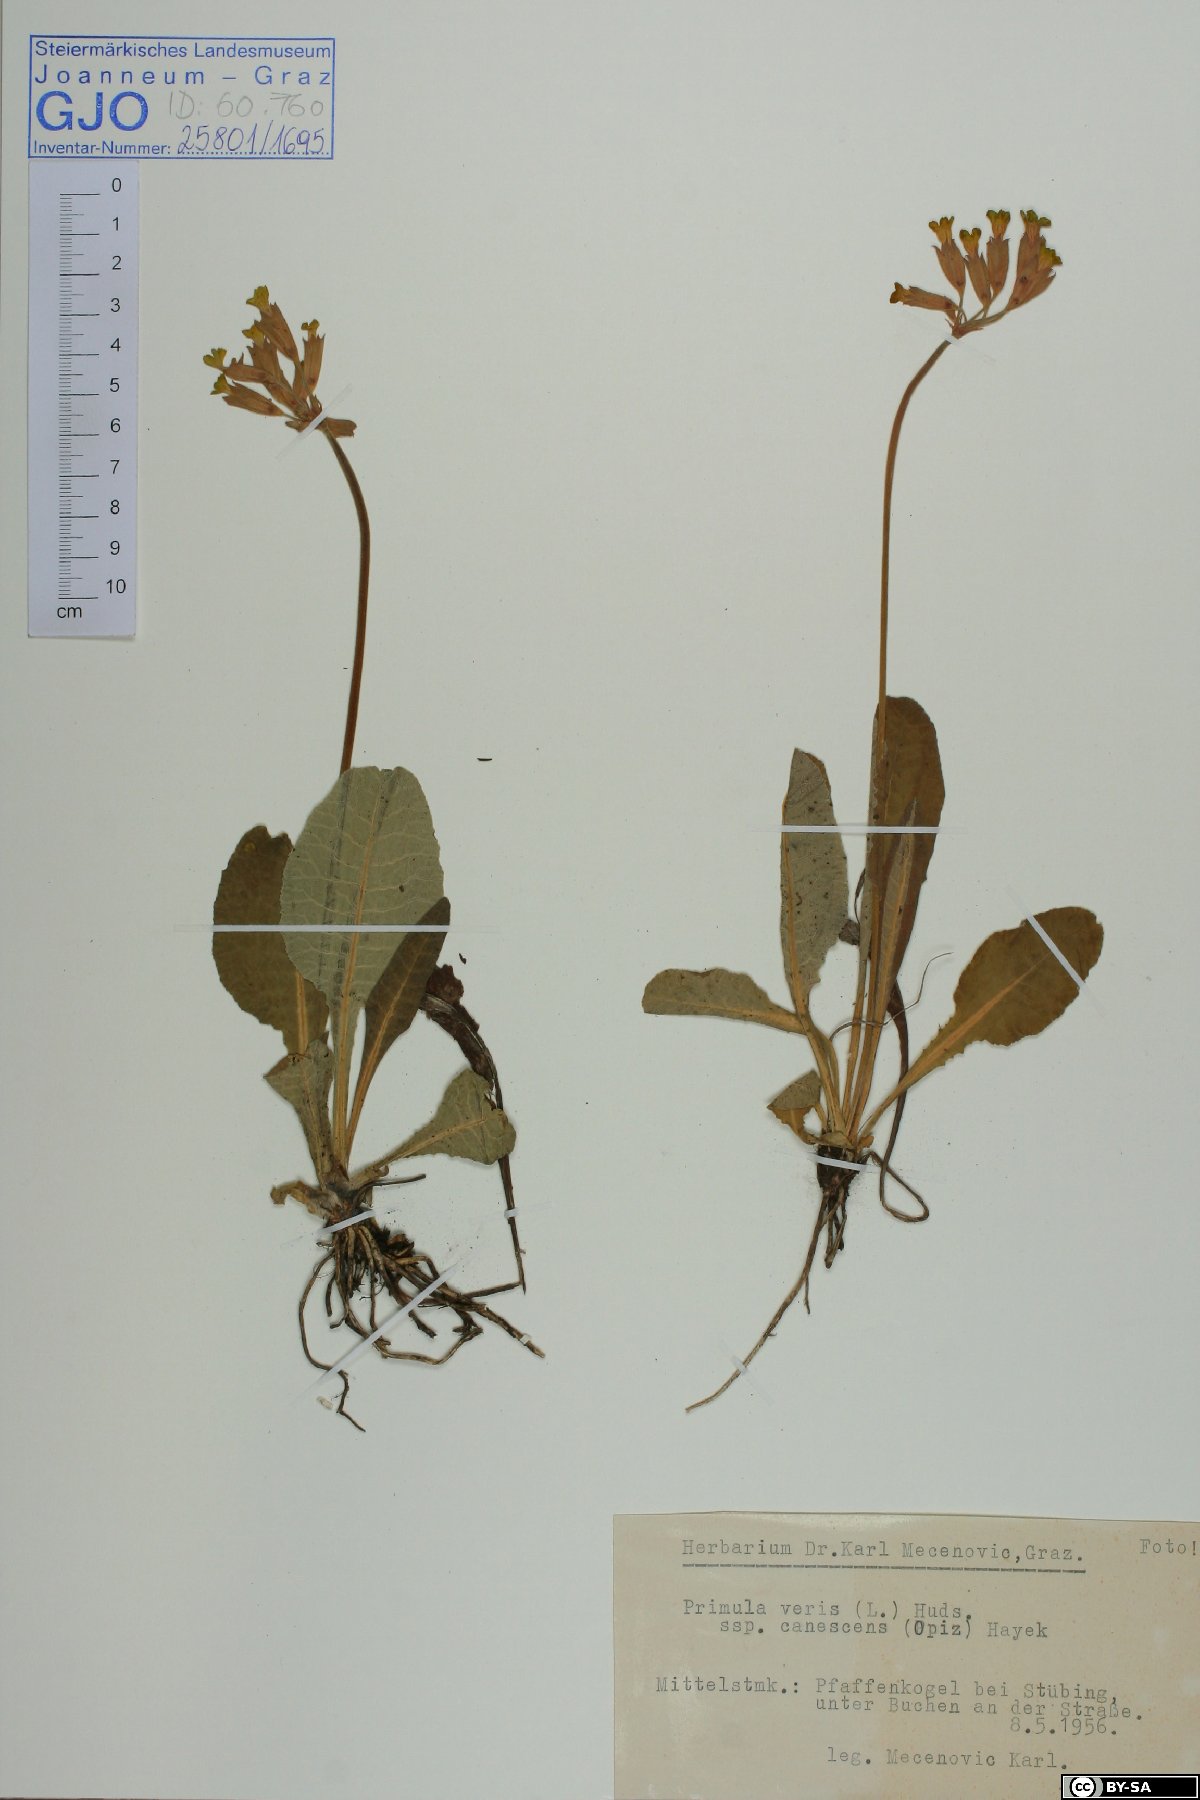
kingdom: Plantae
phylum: Tracheophyta
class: Magnoliopsida
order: Ericales
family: Primulaceae
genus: Primula
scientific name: Primula veris
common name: Cowslip
